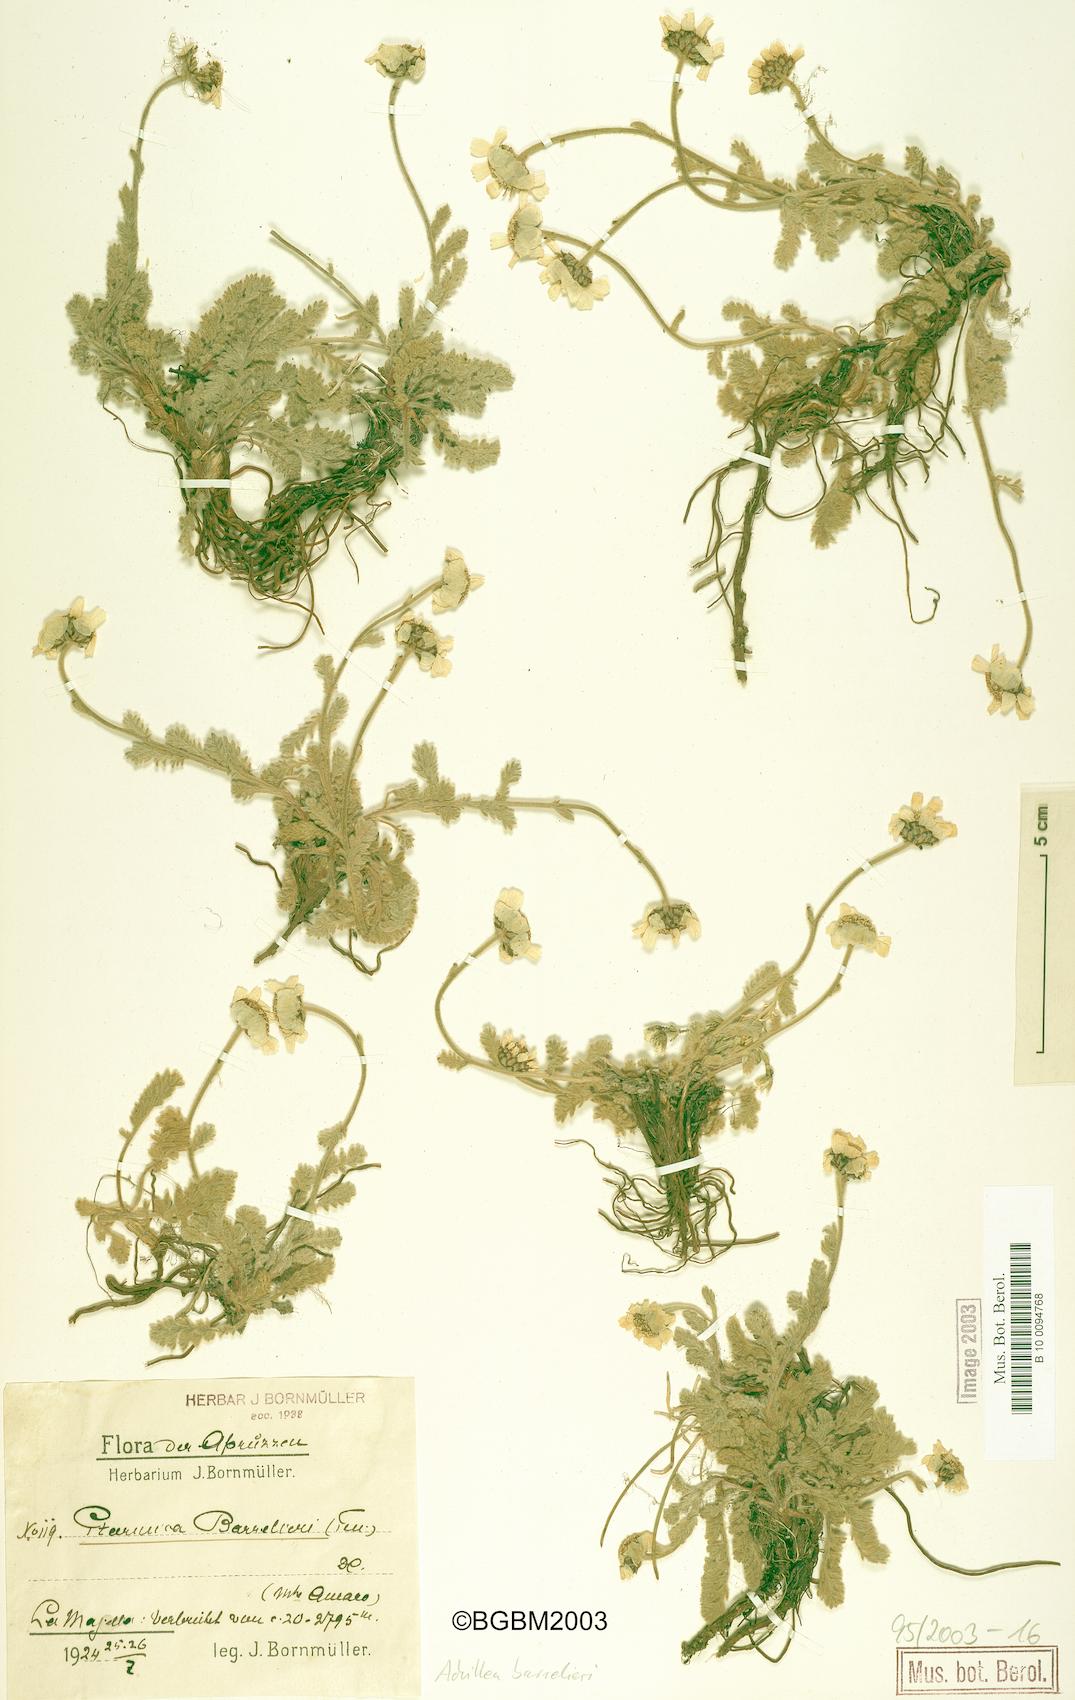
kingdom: Plantae
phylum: Tracheophyta
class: Magnoliopsida
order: Asterales
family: Asteraceae
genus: Achillea
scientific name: Achillea barrelieri
